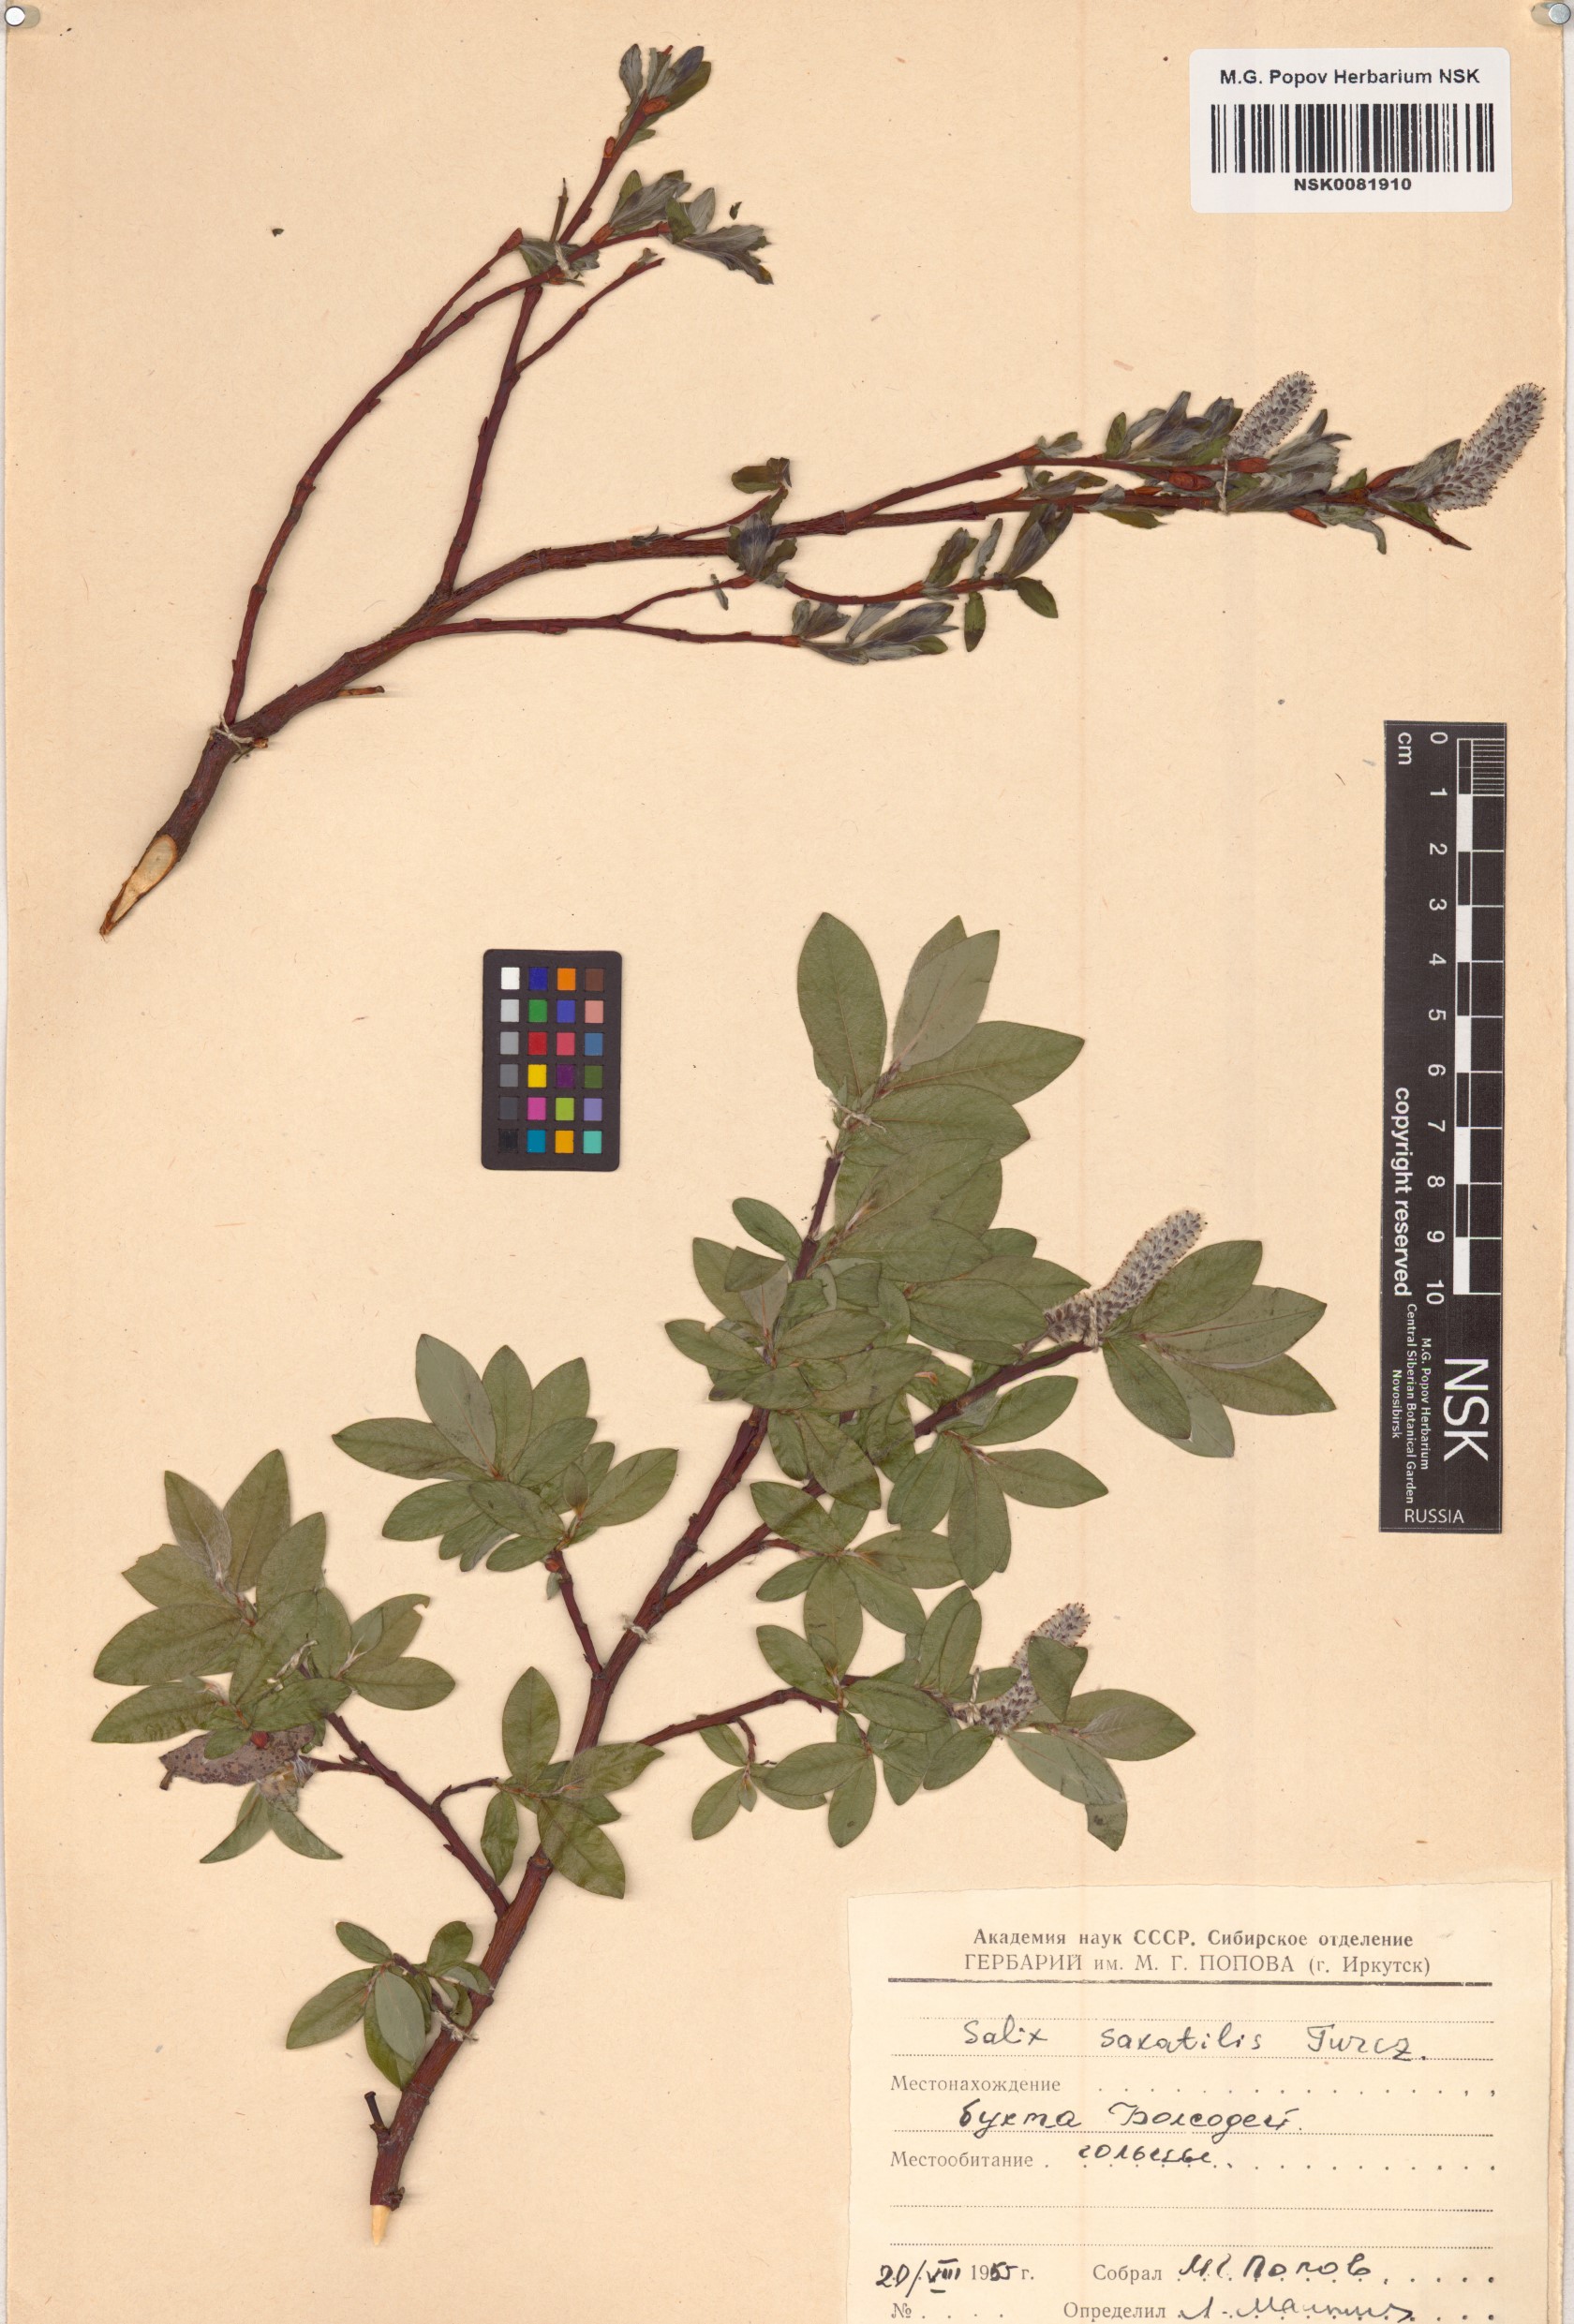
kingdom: Plantae
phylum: Tracheophyta
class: Magnoliopsida
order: Malpighiales
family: Salicaceae
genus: Salix
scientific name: Salix saxatilis
